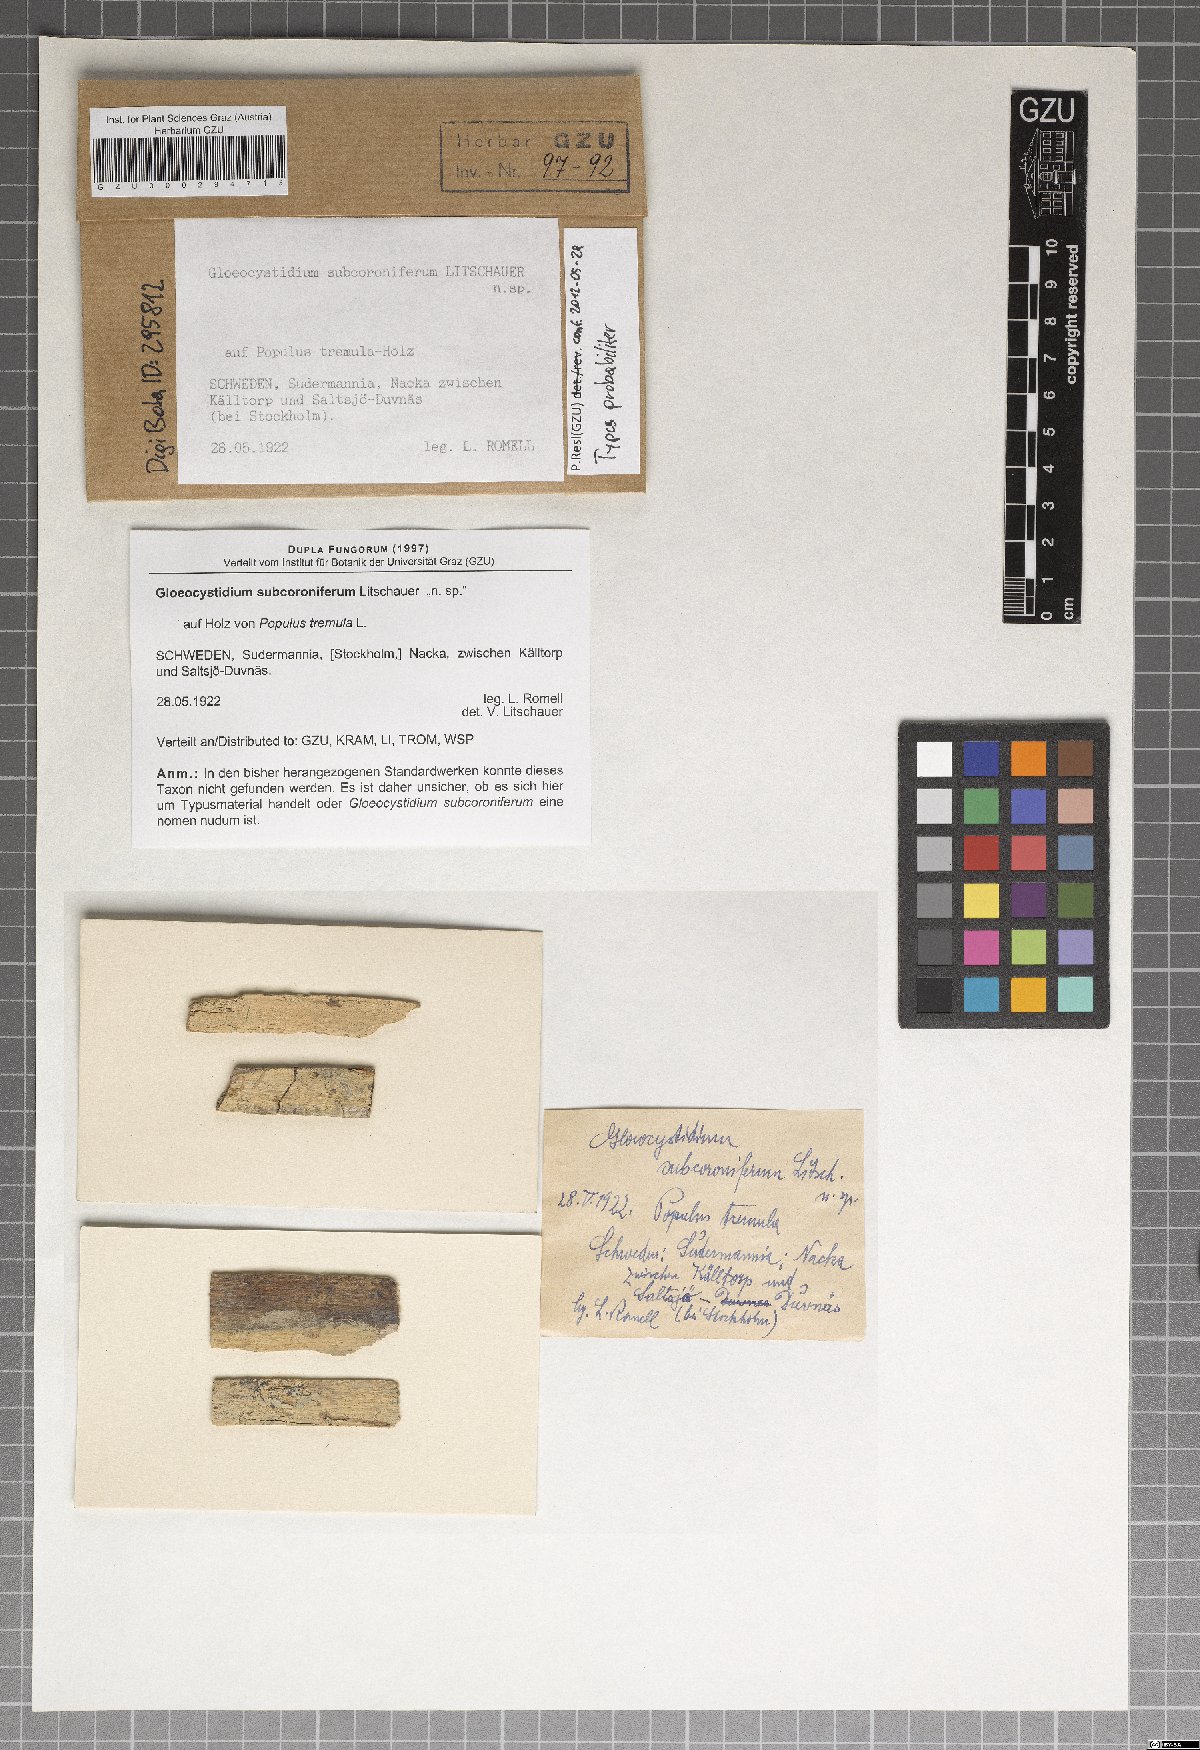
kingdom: Fungi
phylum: Basidiomycota
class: Agaricomycetes
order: Polyporales
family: Fomitopsidaceae
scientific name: Fomitopsidaceae
